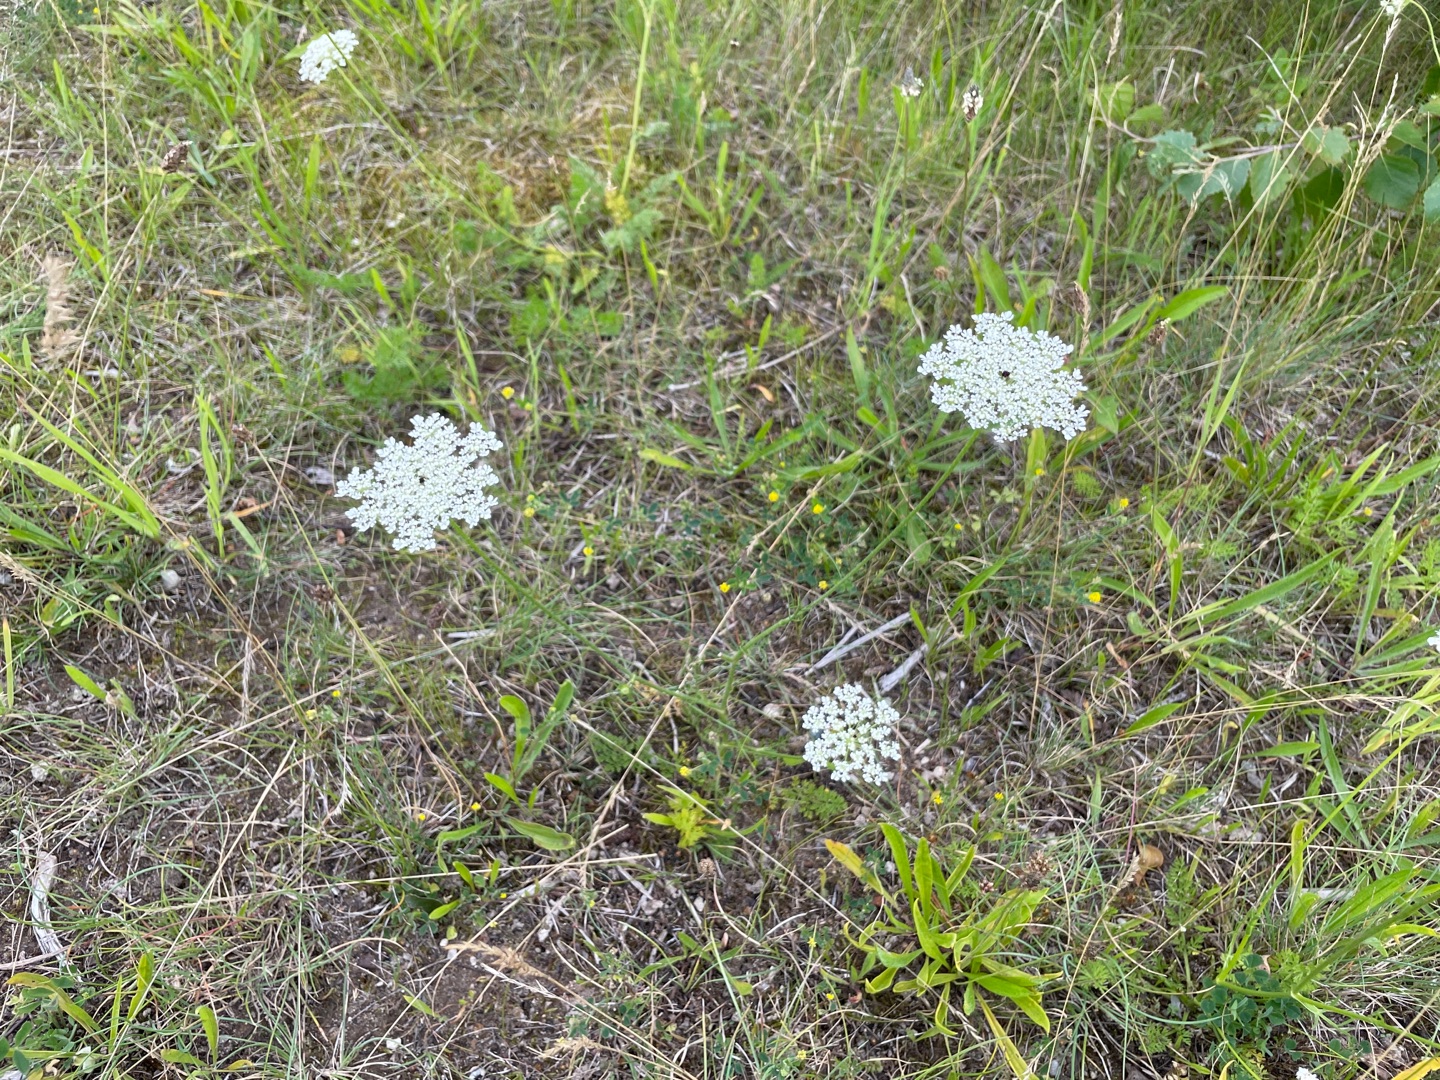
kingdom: Plantae
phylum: Tracheophyta
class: Magnoliopsida
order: Apiales
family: Apiaceae
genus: Daucus
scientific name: Daucus carota
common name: Gulerod
